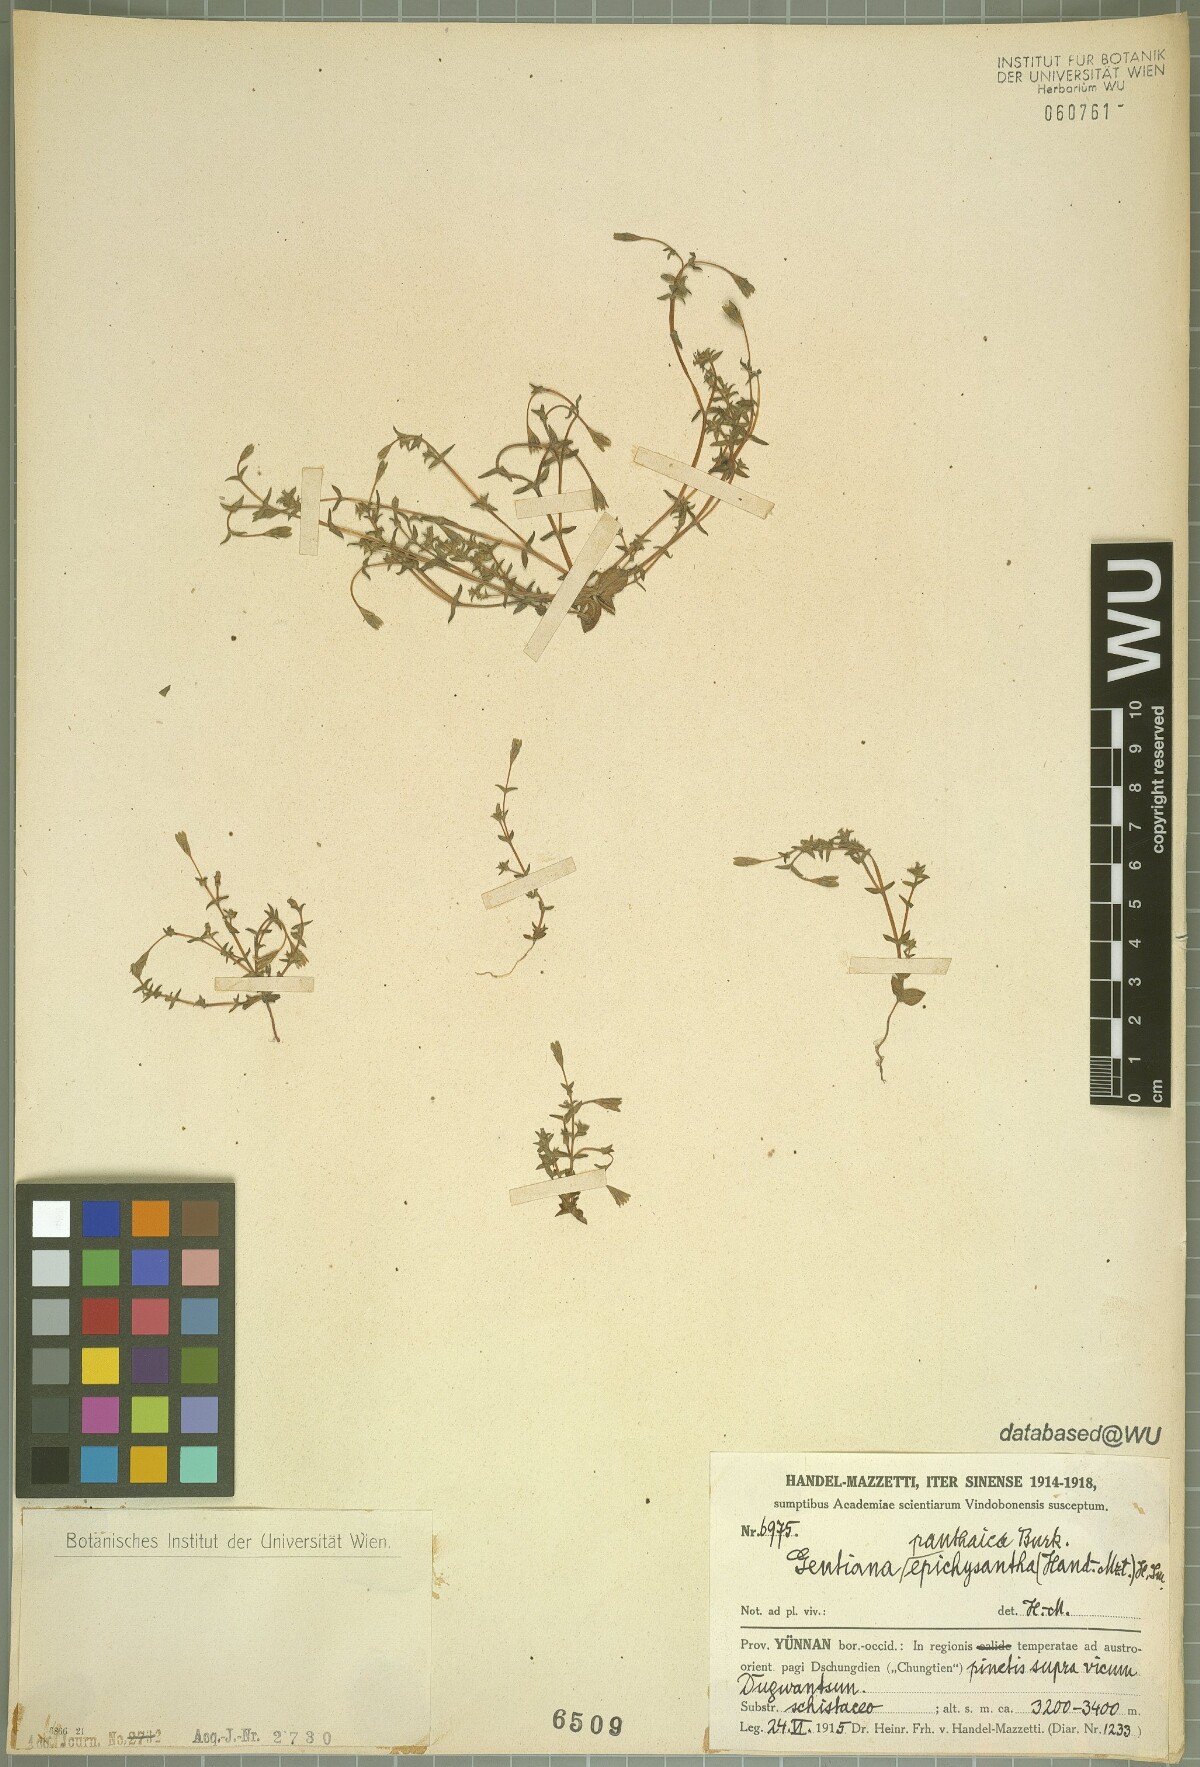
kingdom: Plantae
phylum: Tracheophyta
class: Magnoliopsida
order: Gentianales
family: Gentianaceae
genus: Gentiana
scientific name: Gentiana panthaica
